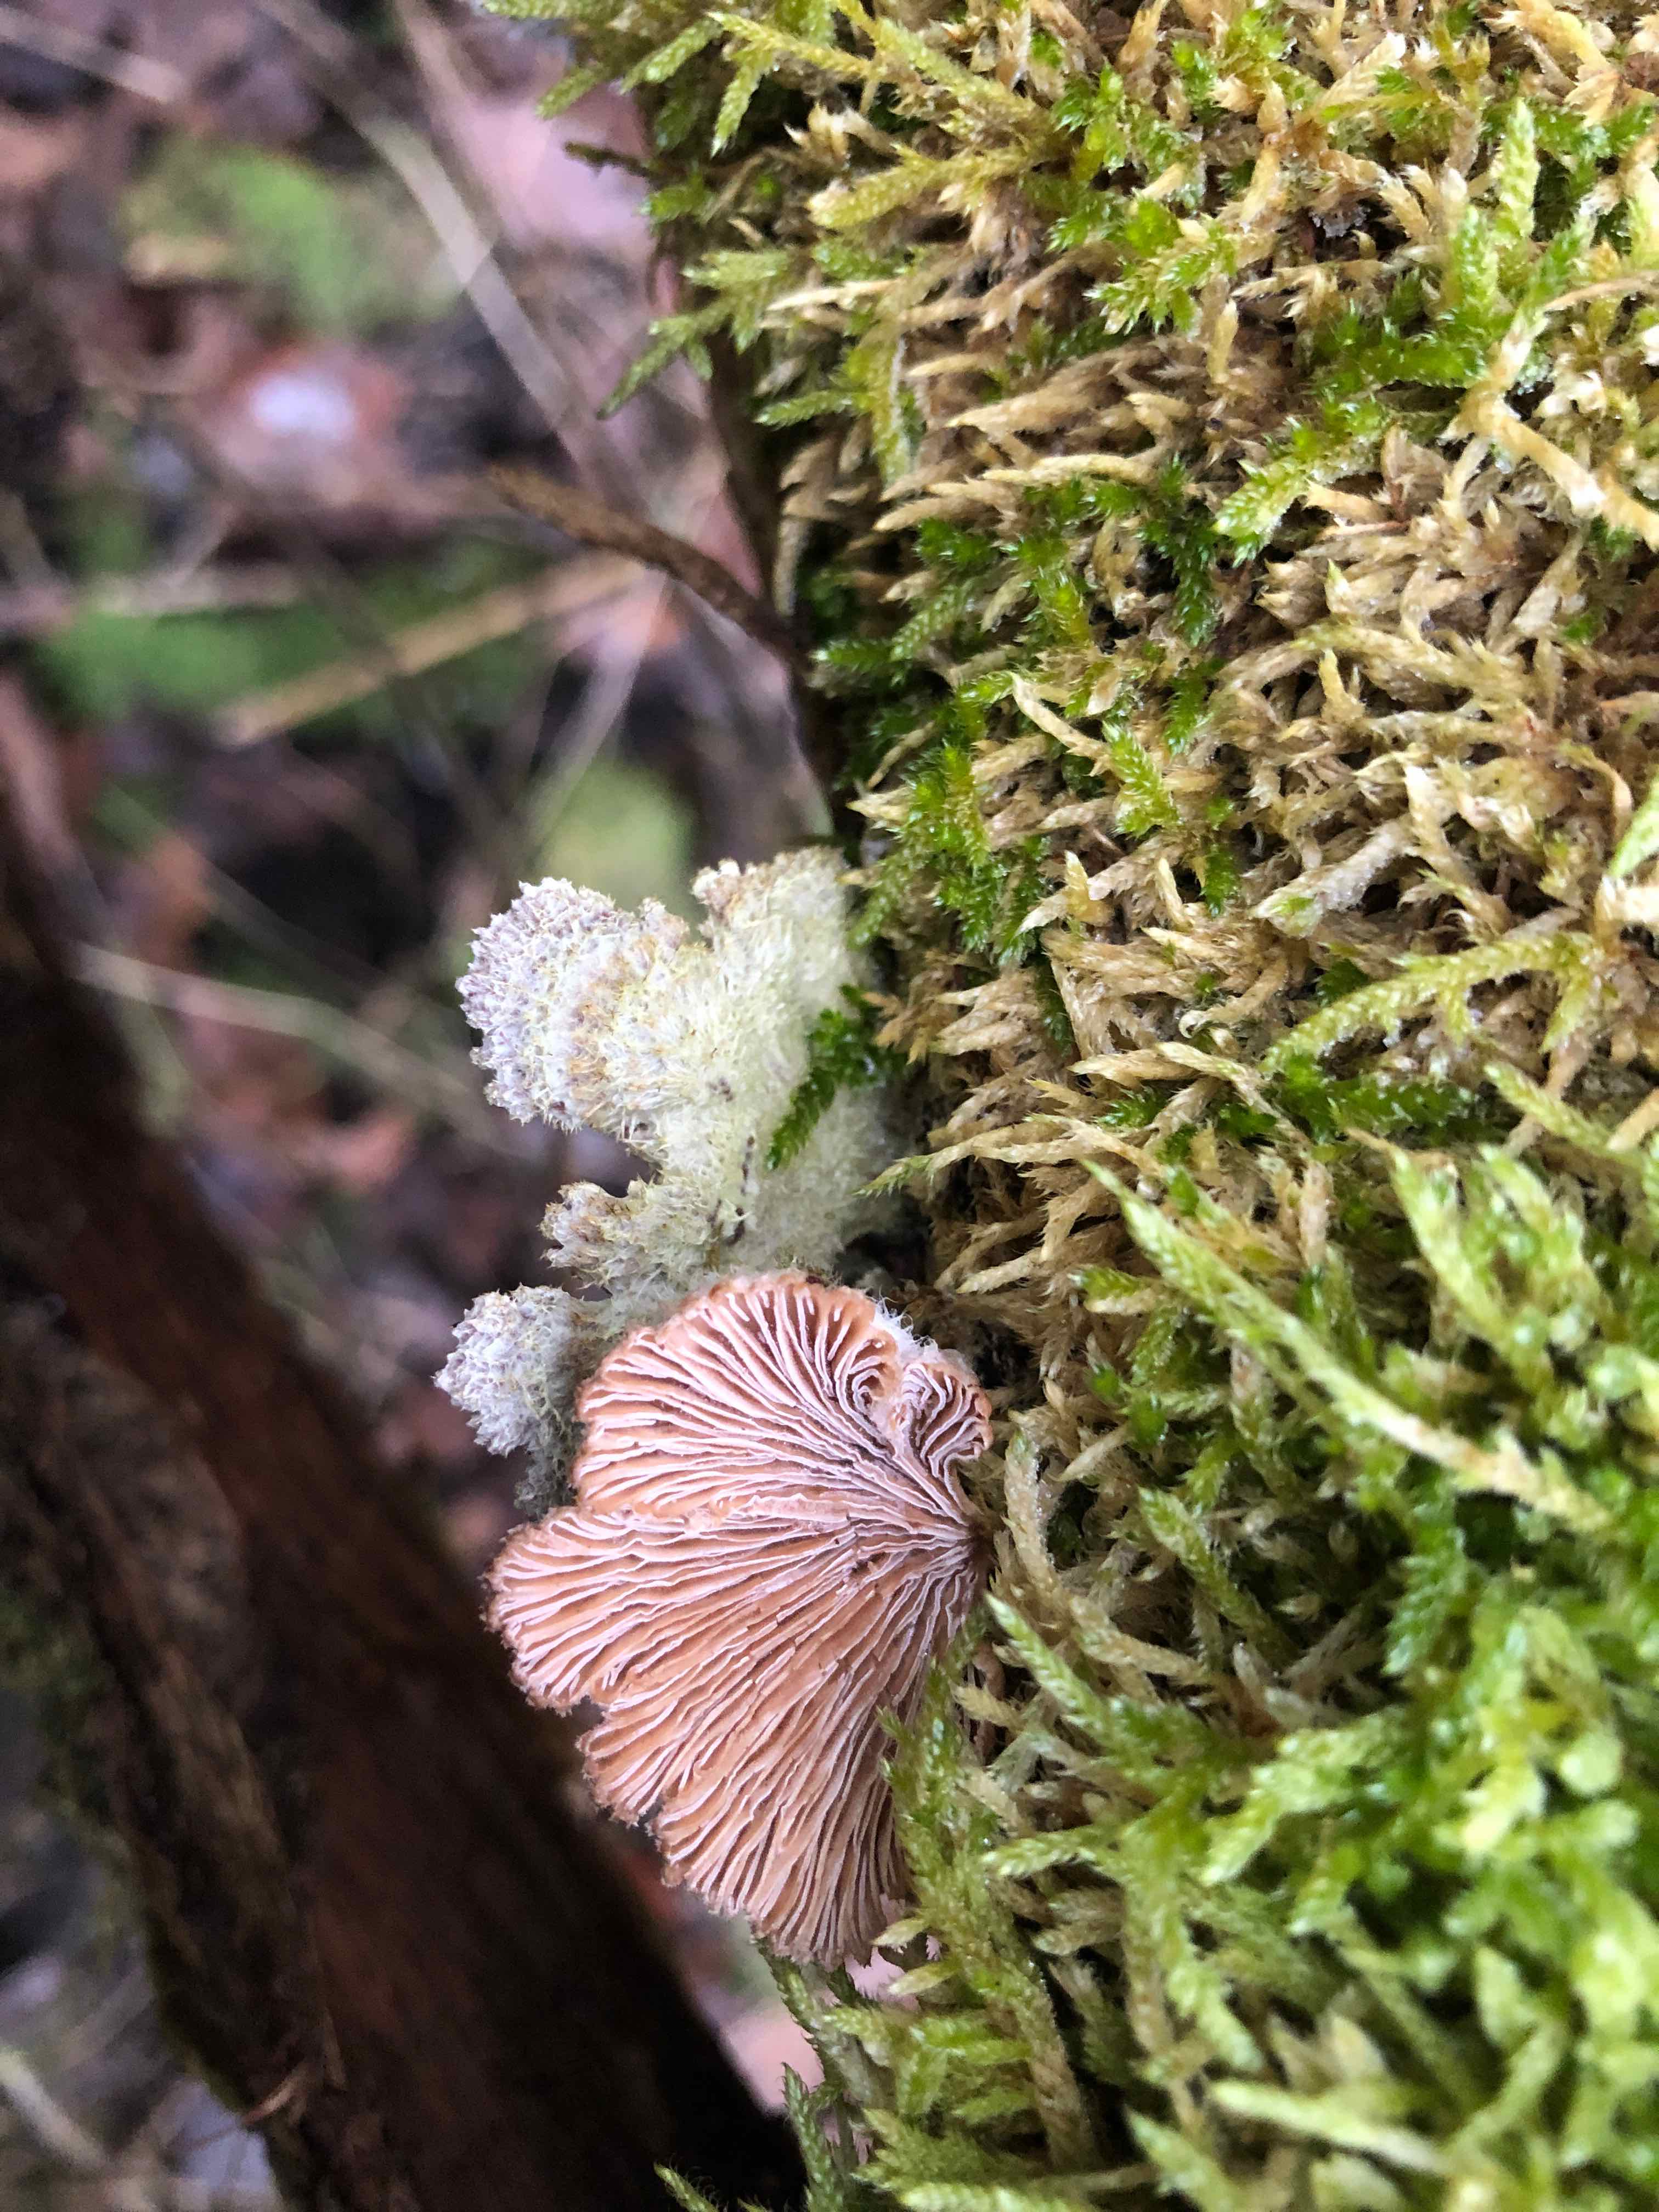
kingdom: Fungi
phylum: Basidiomycota
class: Agaricomycetes
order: Agaricales
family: Schizophyllaceae
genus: Schizophyllum
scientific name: Schizophyllum commune
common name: kløvblad
